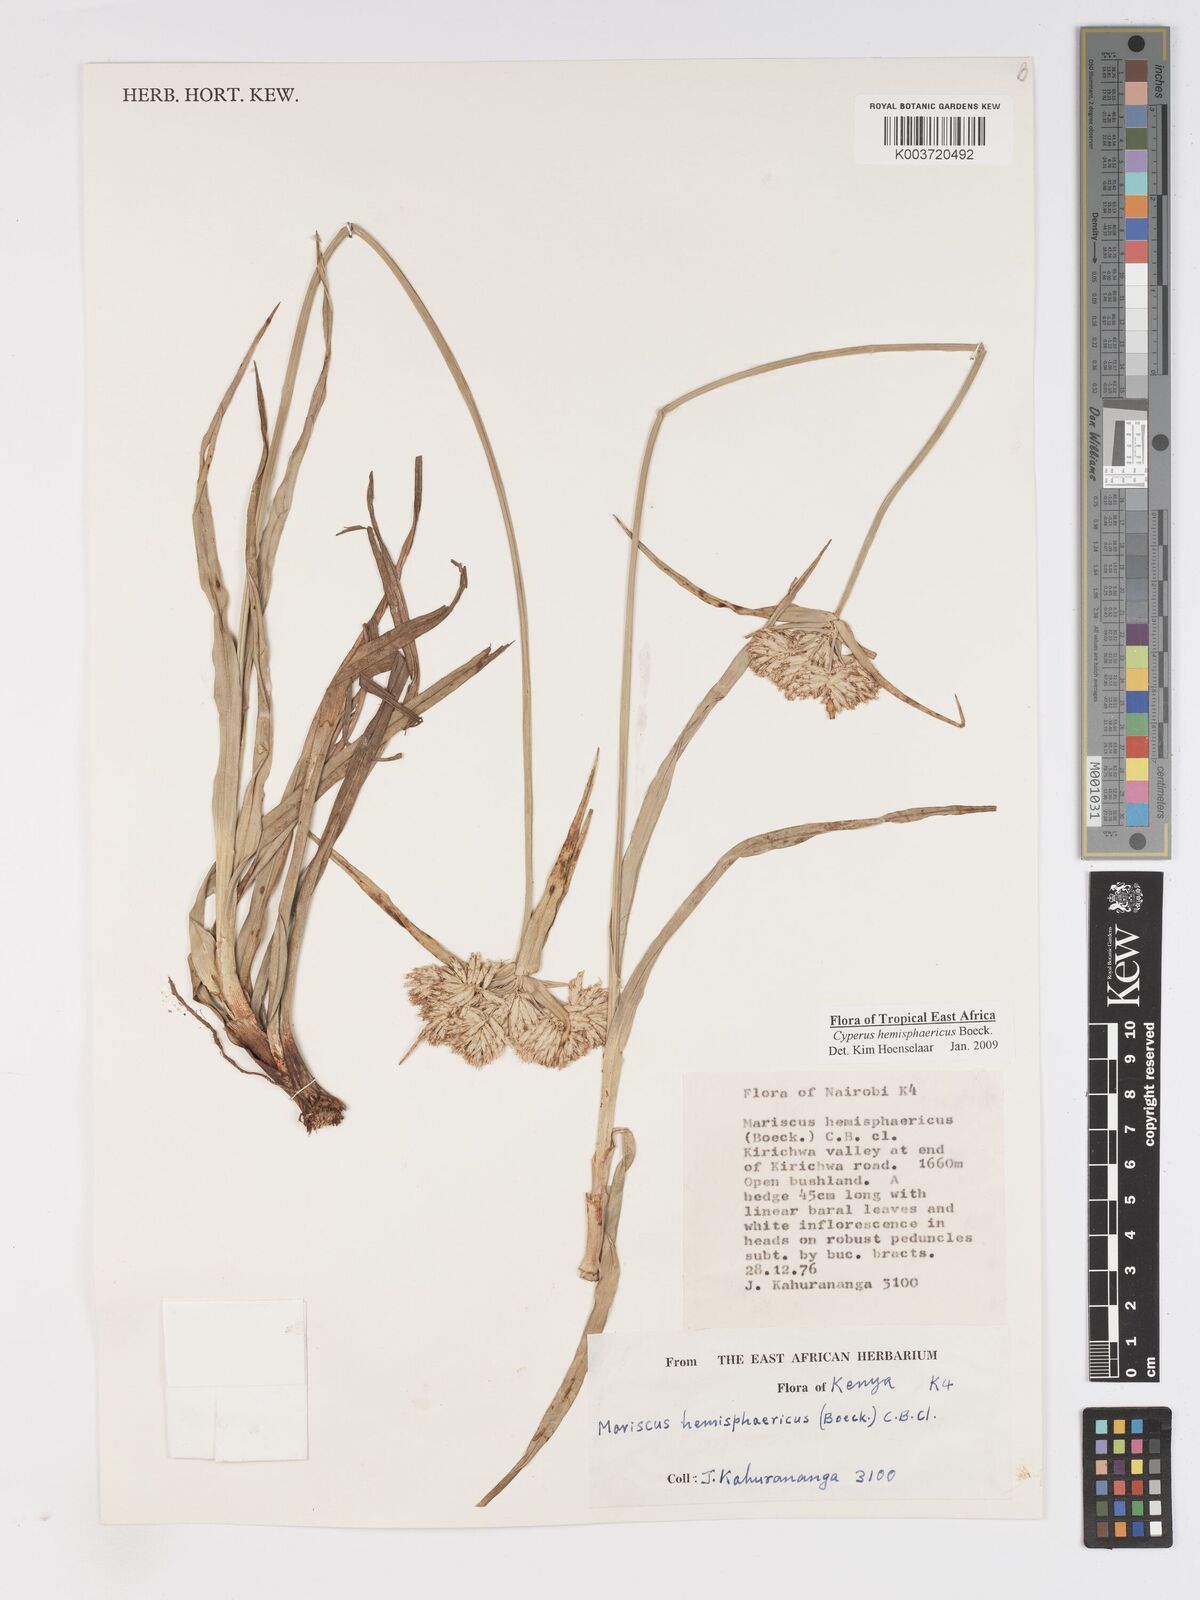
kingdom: Plantae
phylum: Tracheophyta
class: Liliopsida
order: Poales
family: Cyperaceae
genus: Cyperus
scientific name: Cyperus hemisphaericus
